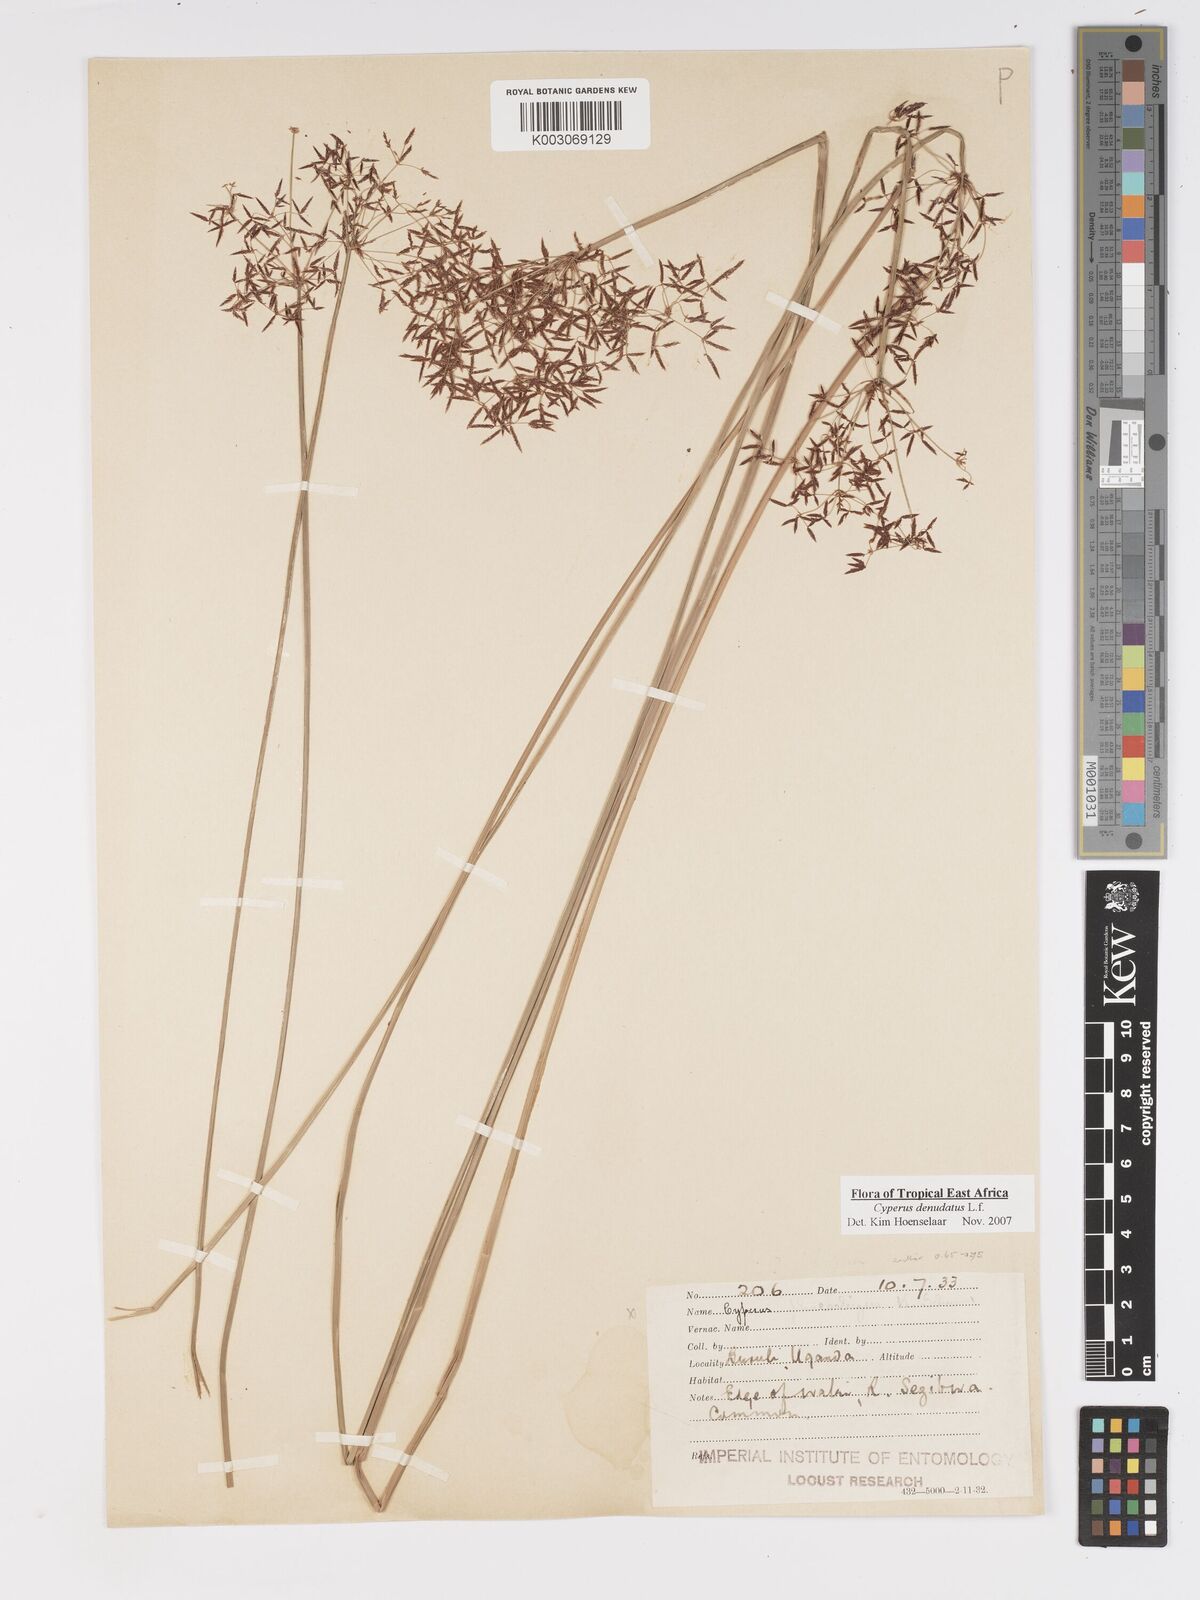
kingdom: Plantae
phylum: Tracheophyta
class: Liliopsida
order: Poales
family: Cyperaceae
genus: Cyperus
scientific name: Cyperus platycaulis
